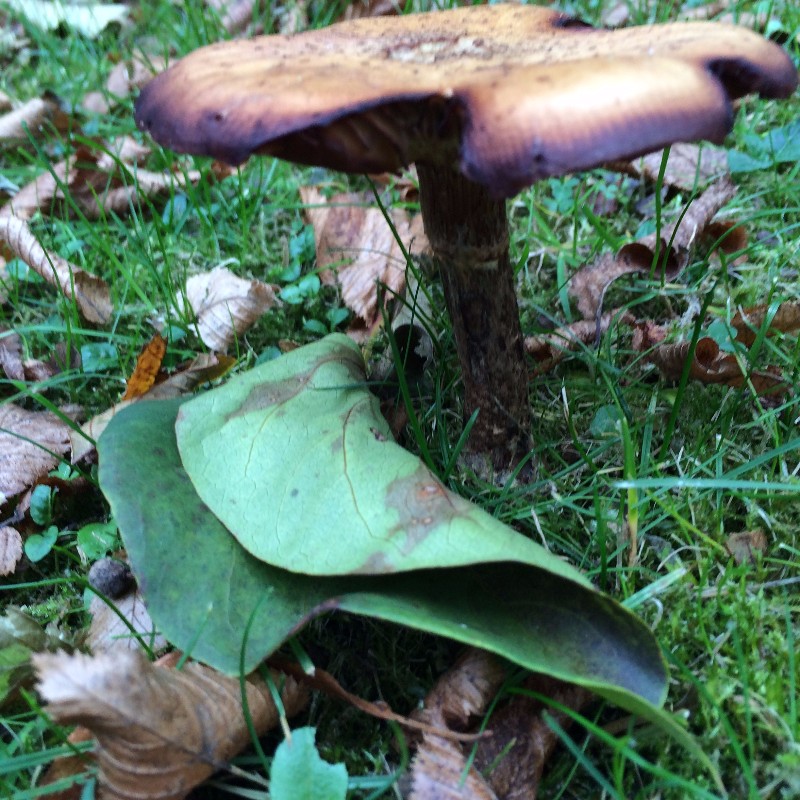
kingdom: Fungi
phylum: Basidiomycota
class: Agaricomycetes
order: Agaricales
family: Physalacriaceae
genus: Armillaria
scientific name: Armillaria
